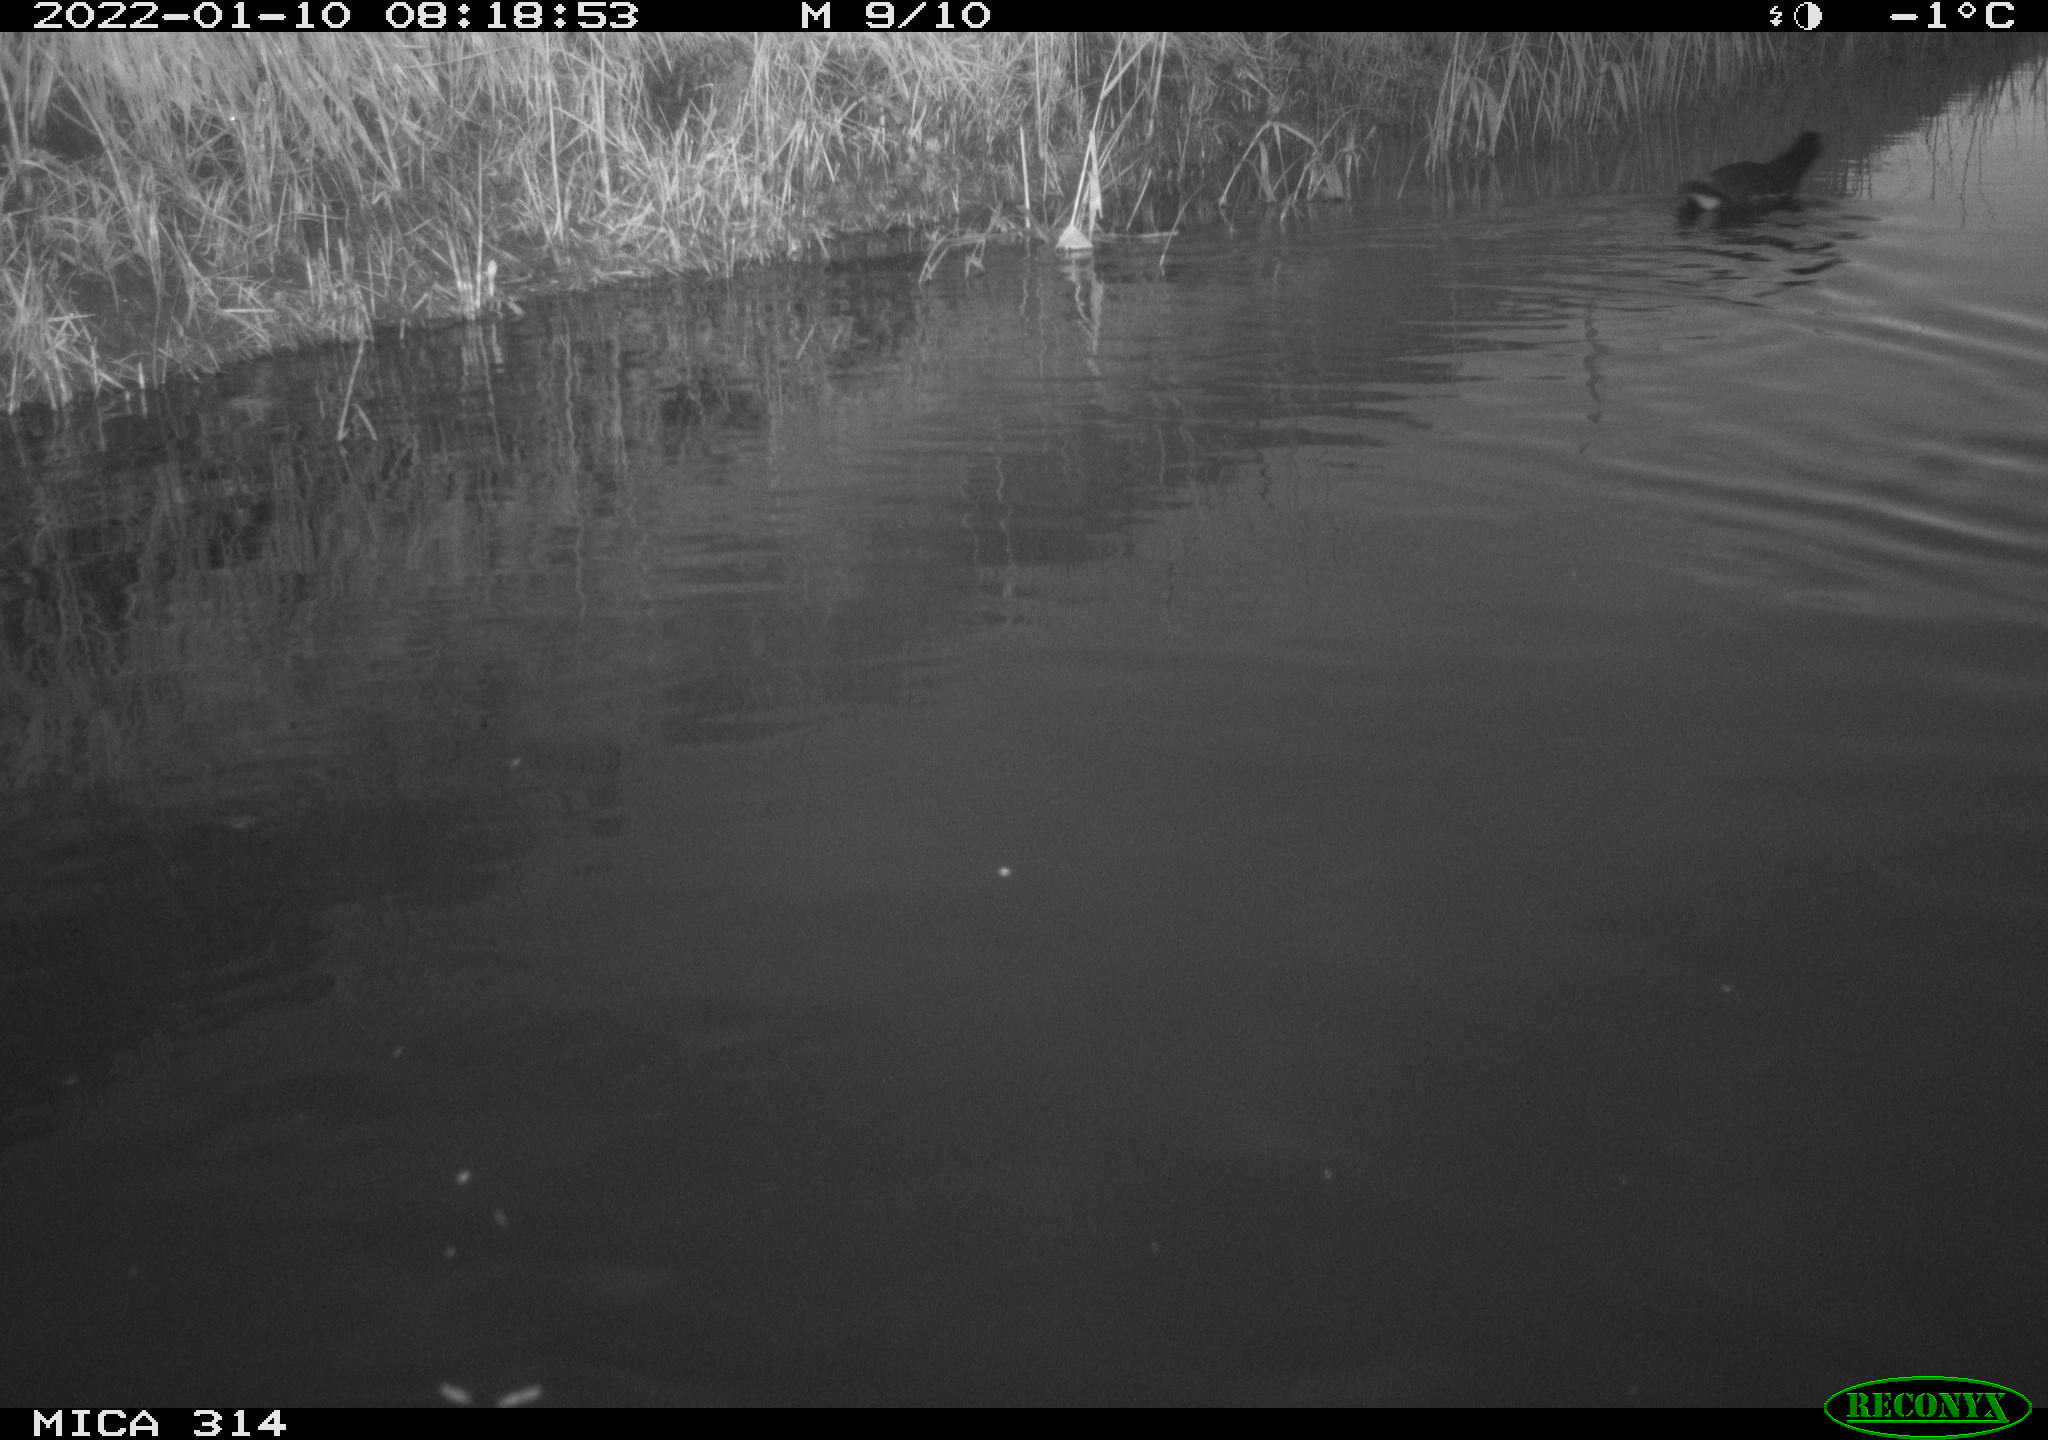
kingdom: Animalia
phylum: Chordata
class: Aves
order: Gruiformes
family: Rallidae
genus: Gallinula
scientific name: Gallinula chloropus
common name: Common moorhen
